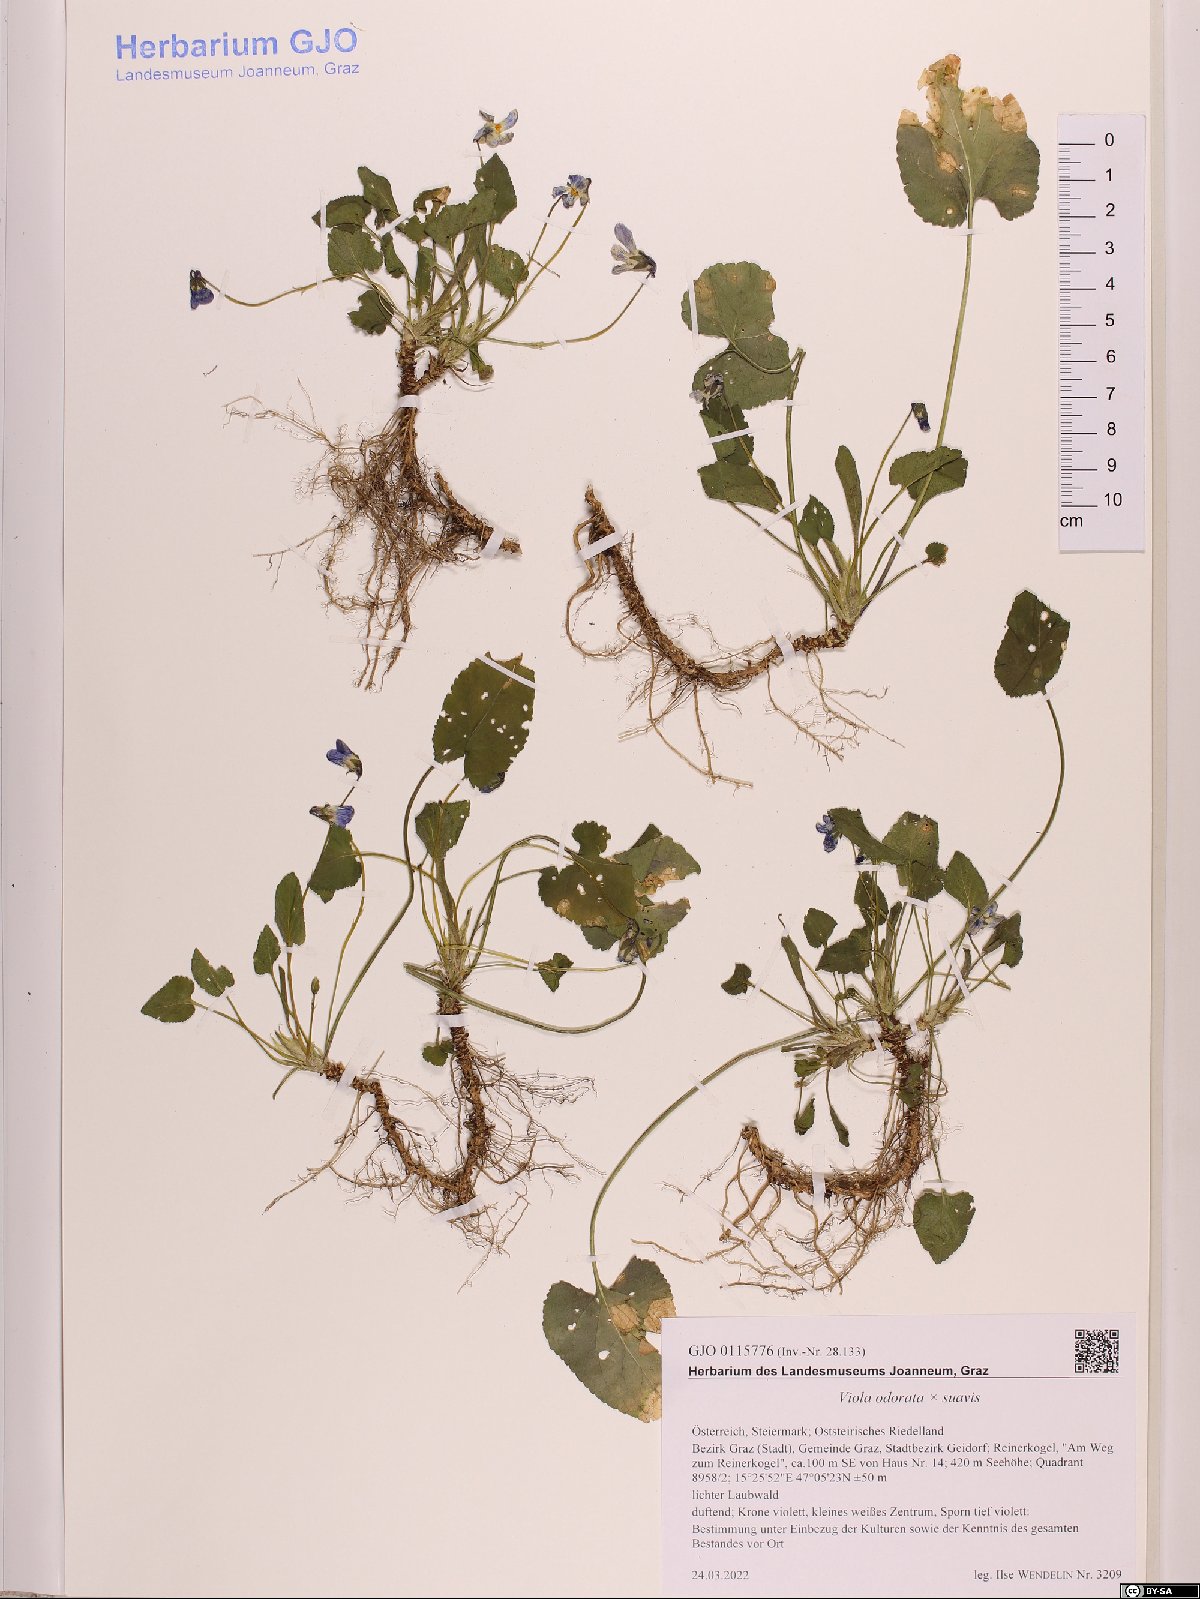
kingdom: Plantae
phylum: Tracheophyta
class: Magnoliopsida
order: Malpighiales
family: Violaceae
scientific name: Violaceae
